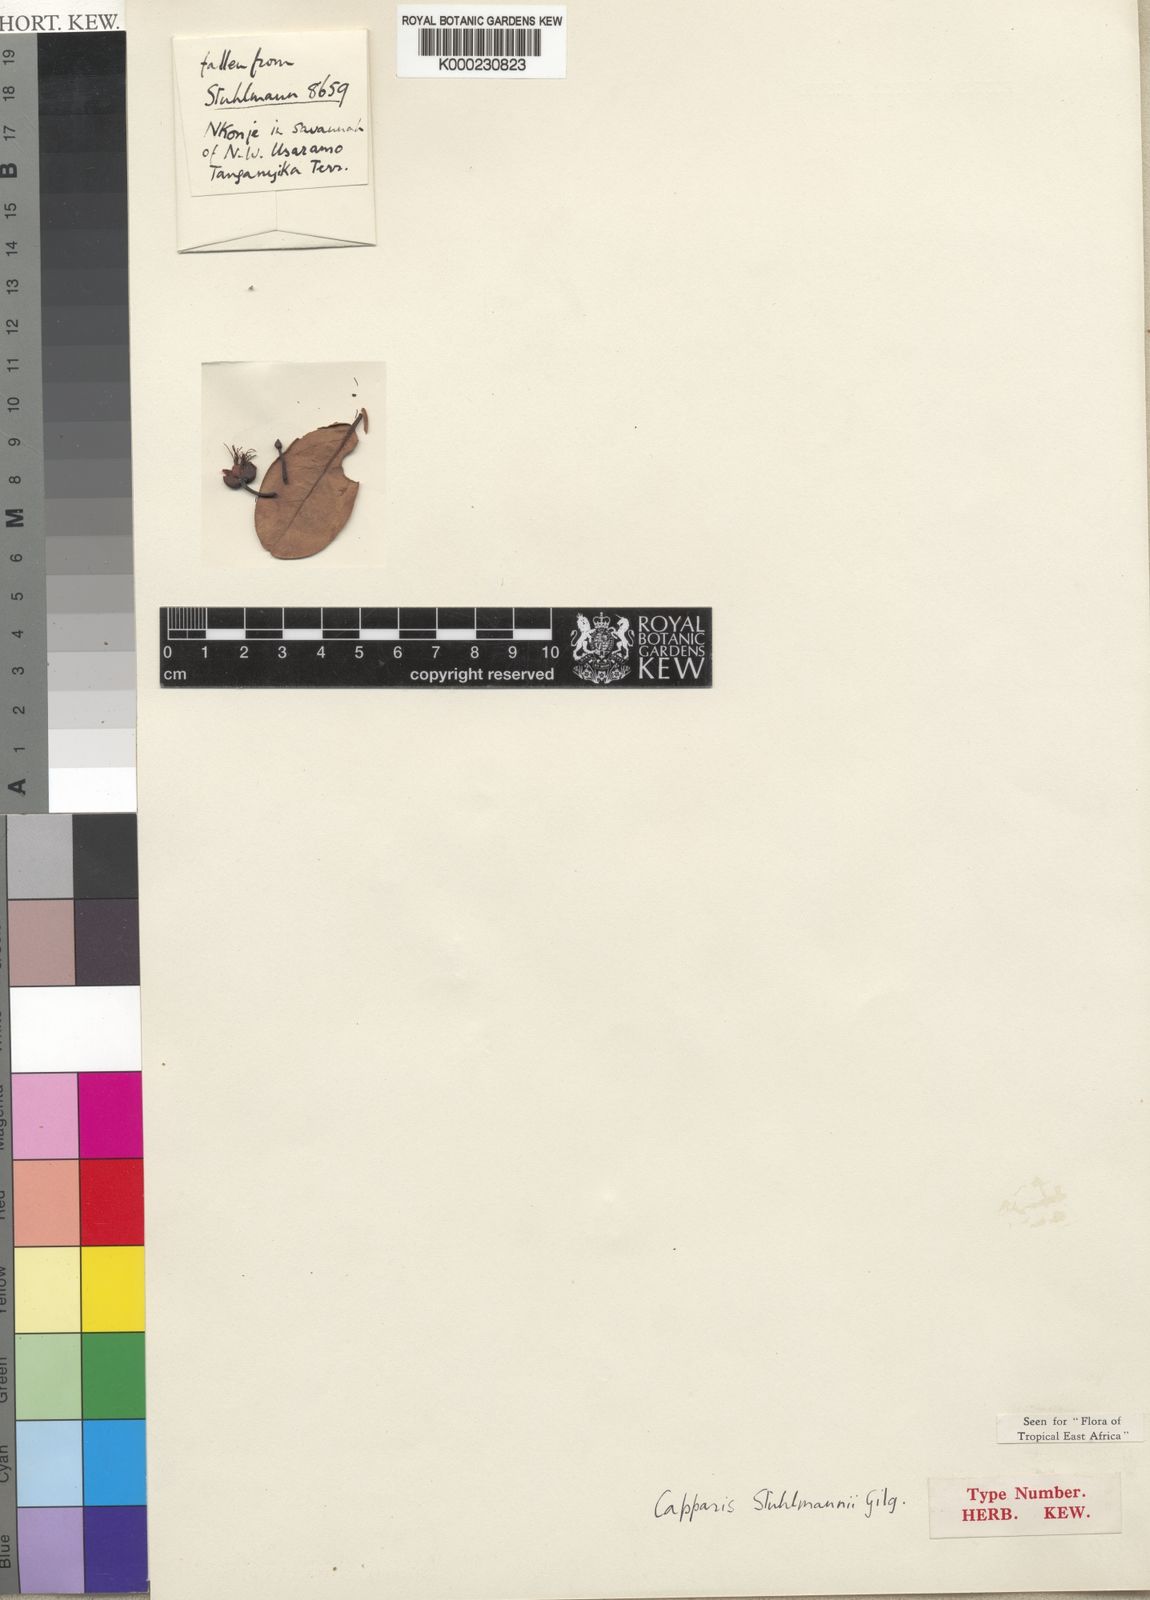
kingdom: Plantae
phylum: Tracheophyta
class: Magnoliopsida
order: Brassicales
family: Capparaceae
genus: Capparis
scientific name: Capparis sepiaria
